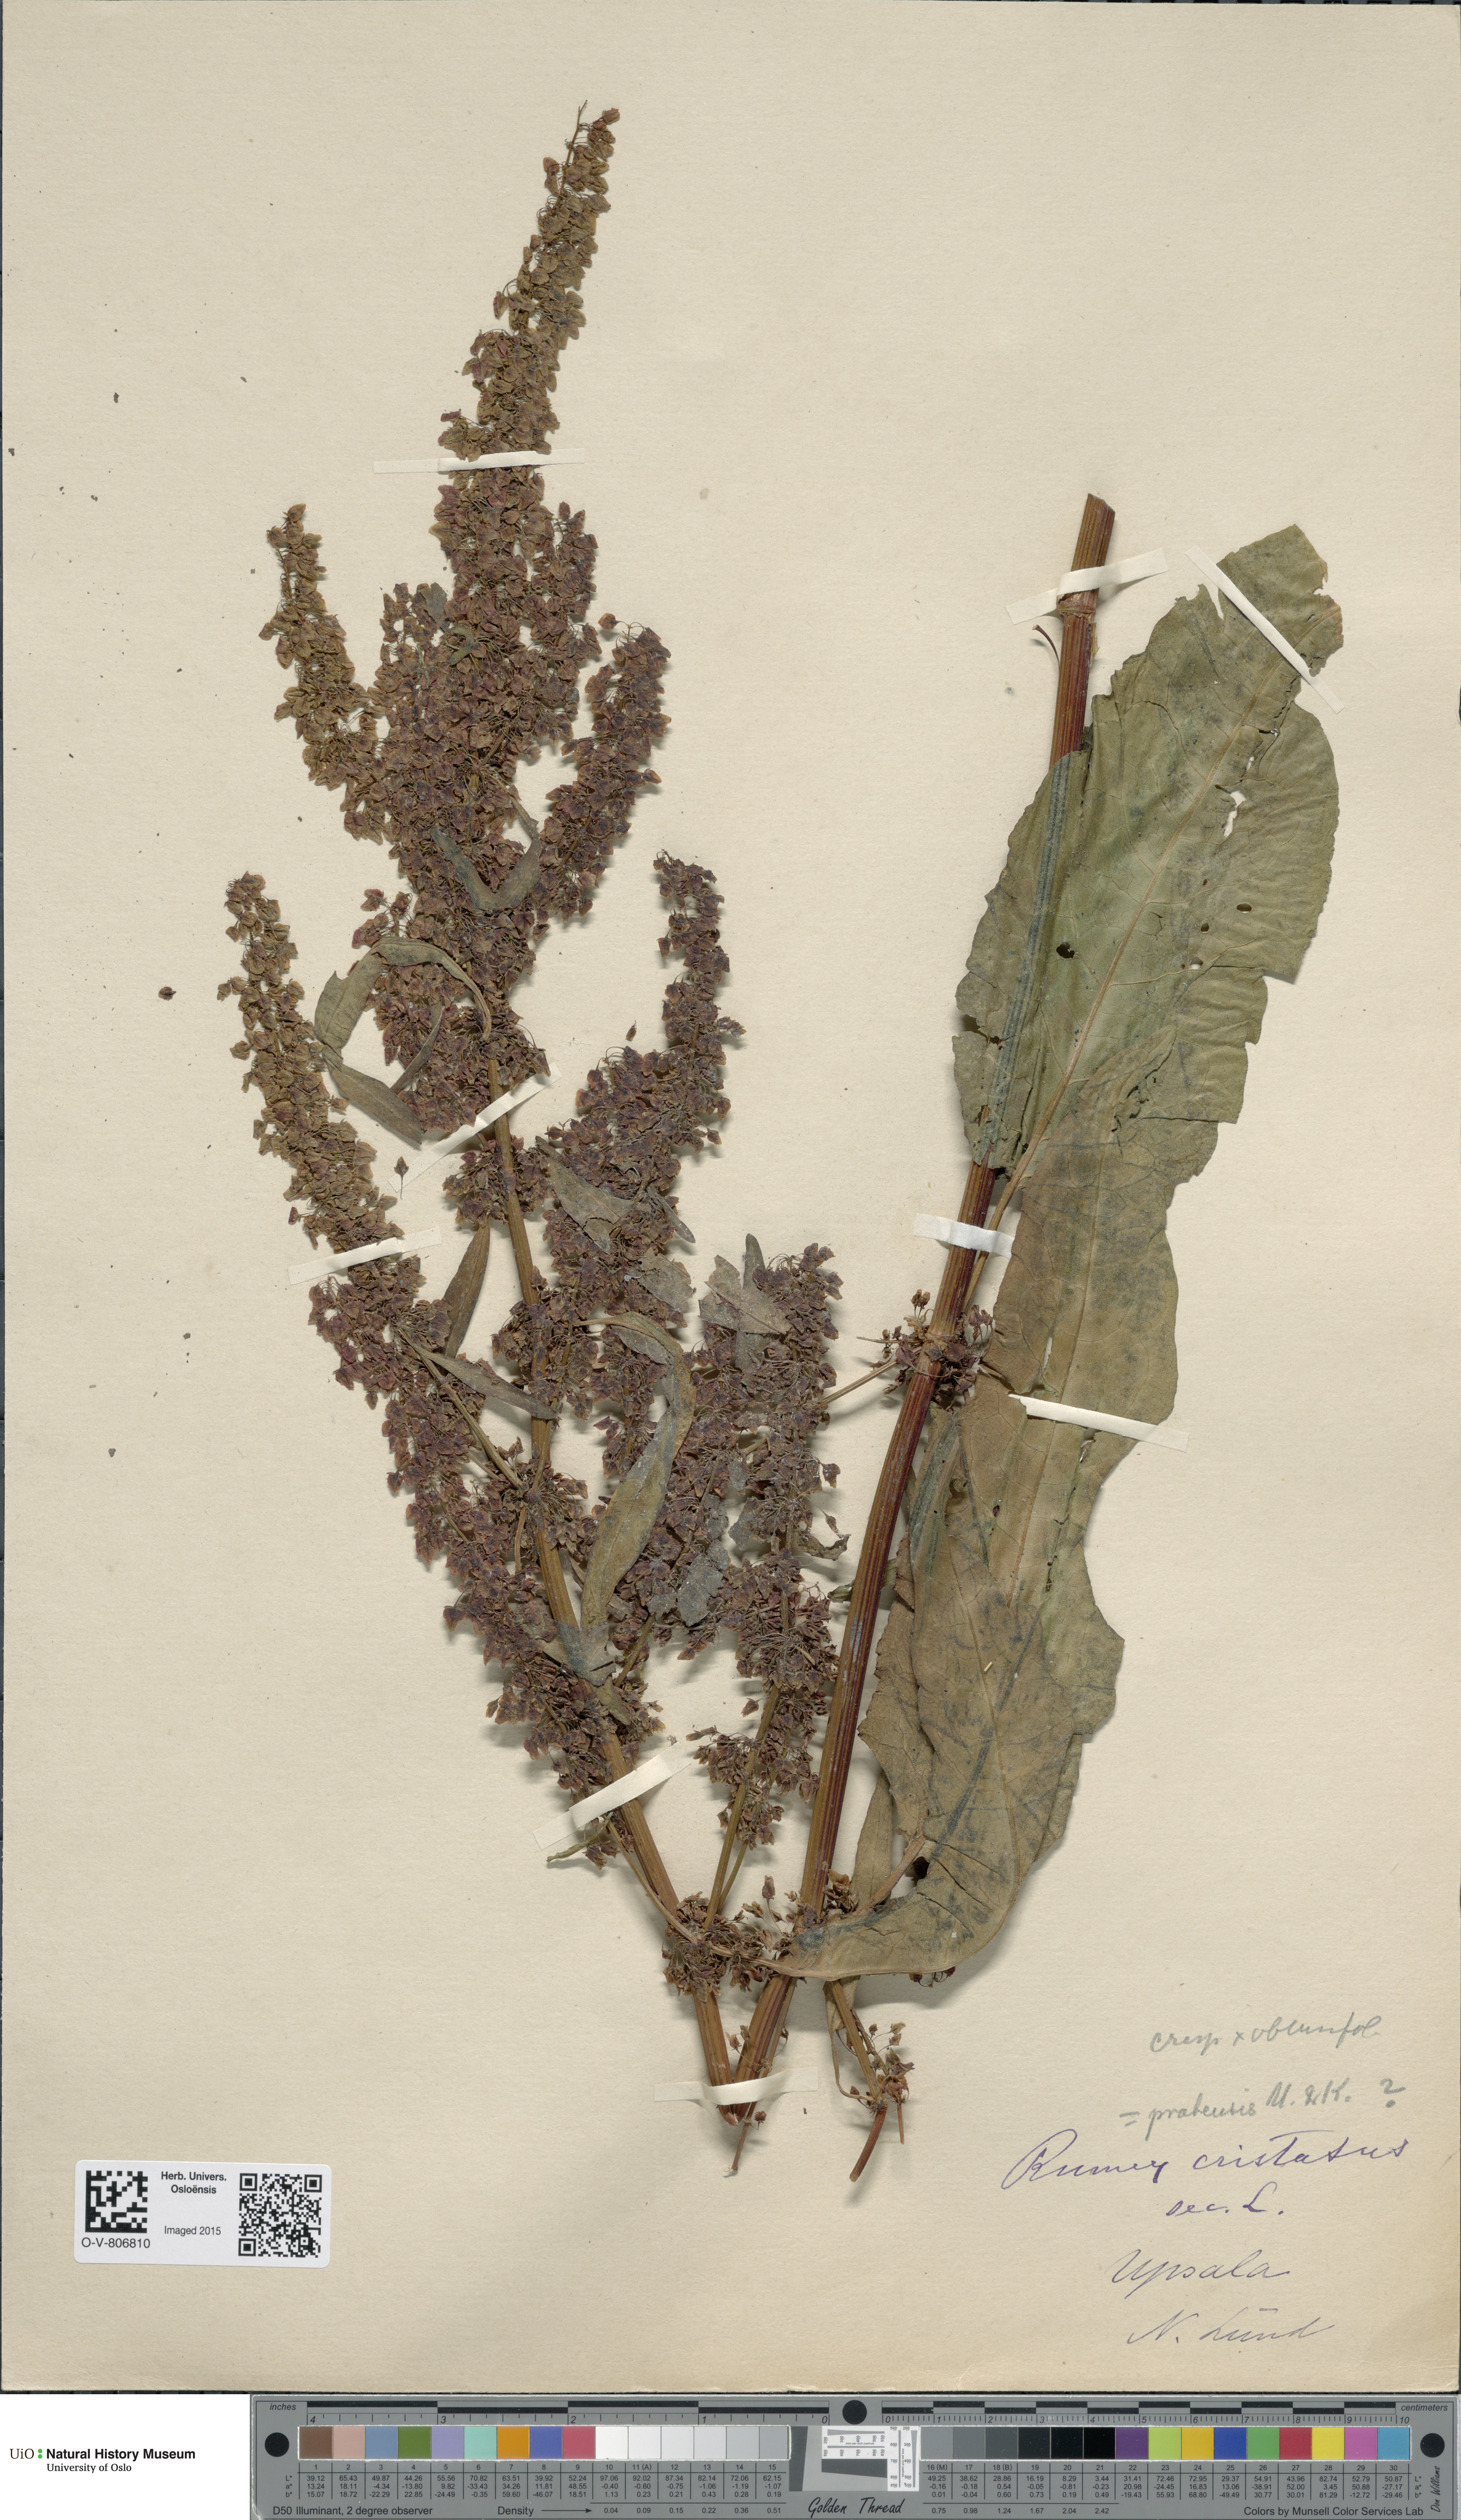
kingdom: Plantae
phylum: Tracheophyta
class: Magnoliopsida
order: Caryophyllales
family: Polygonaceae
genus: Rumex
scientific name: Rumex
